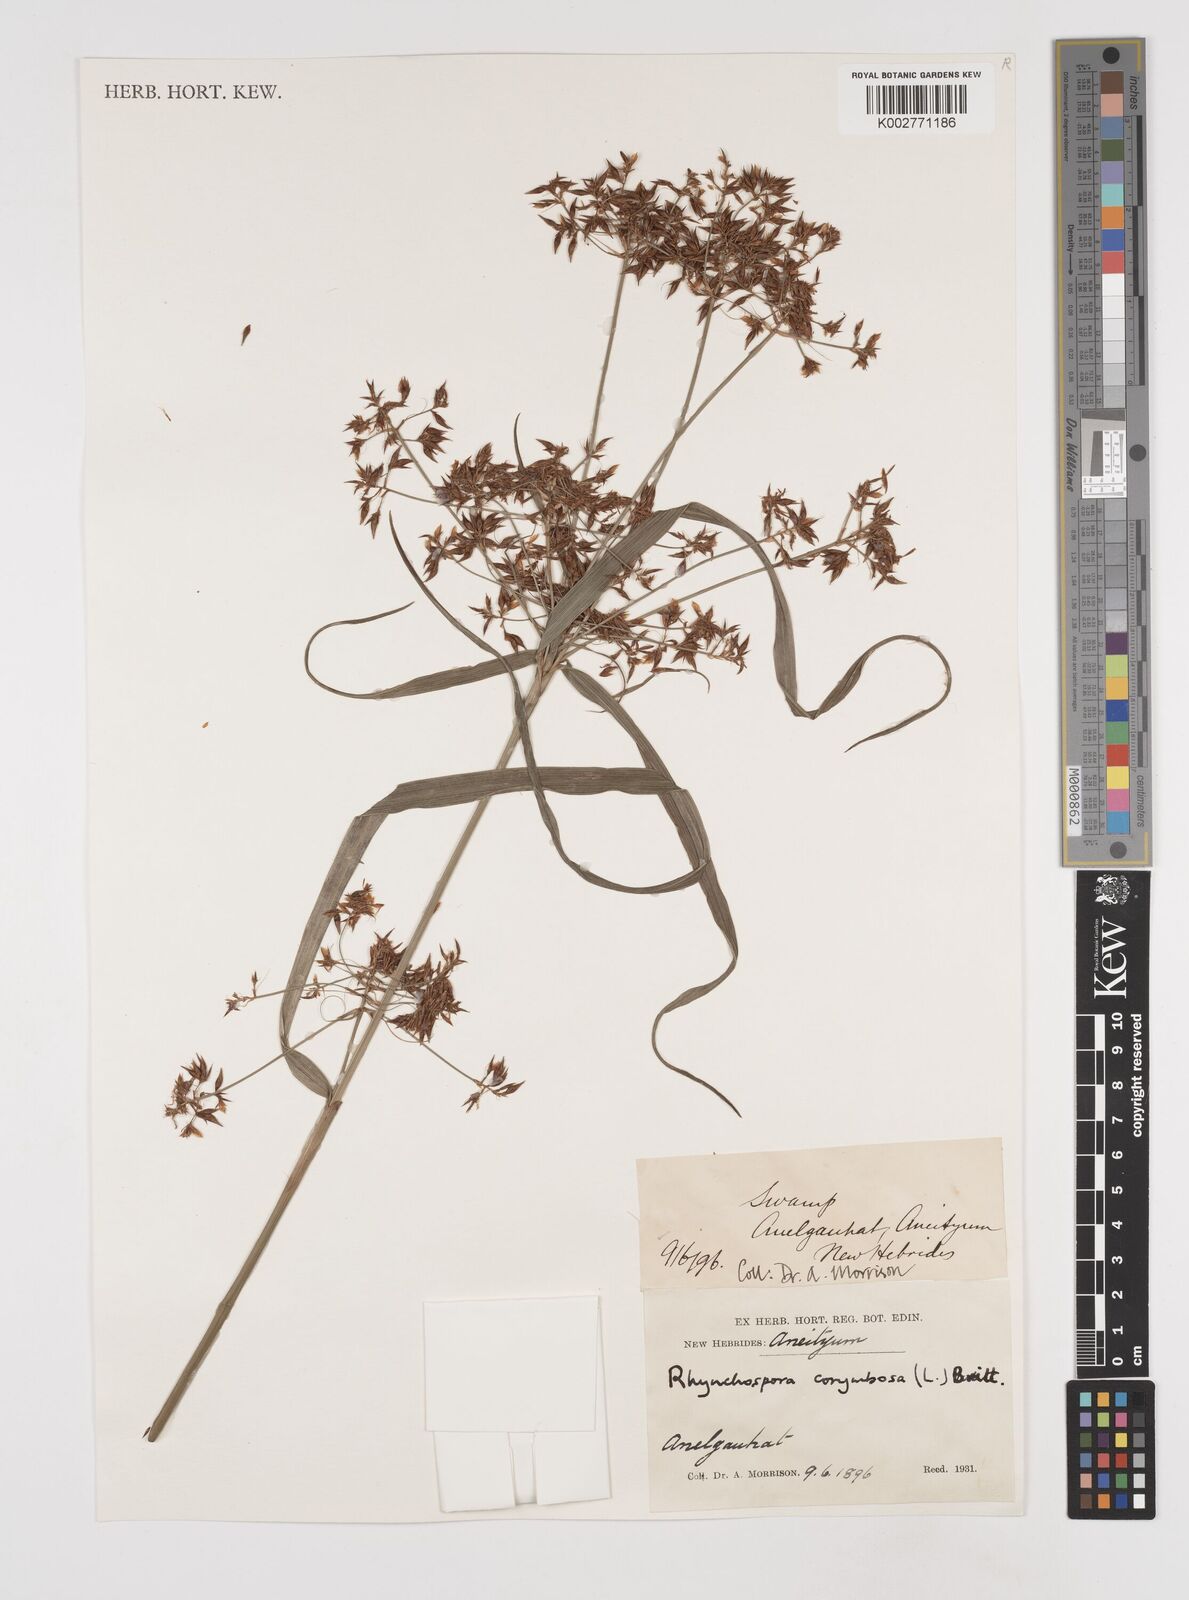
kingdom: Plantae
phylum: Tracheophyta
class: Liliopsida
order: Poales
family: Cyperaceae
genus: Rhynchospora
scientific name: Rhynchospora corymbosa
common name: Golden beak sedge
